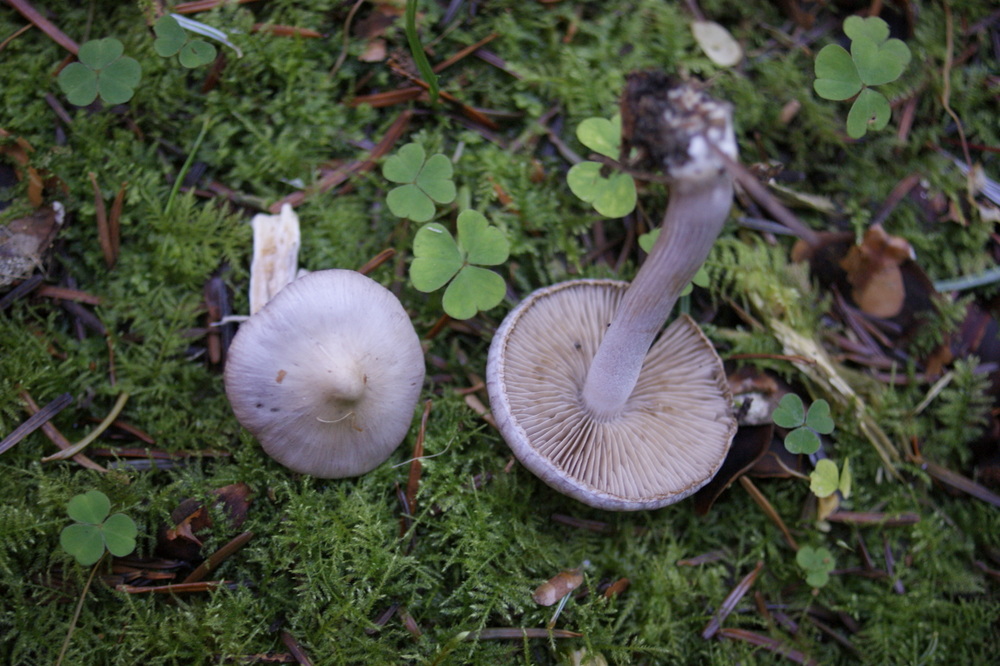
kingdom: Fungi
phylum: Basidiomycota
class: Agaricomycetes
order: Agaricales
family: Inocybaceae
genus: Inocybe
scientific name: Inocybe geophylla
